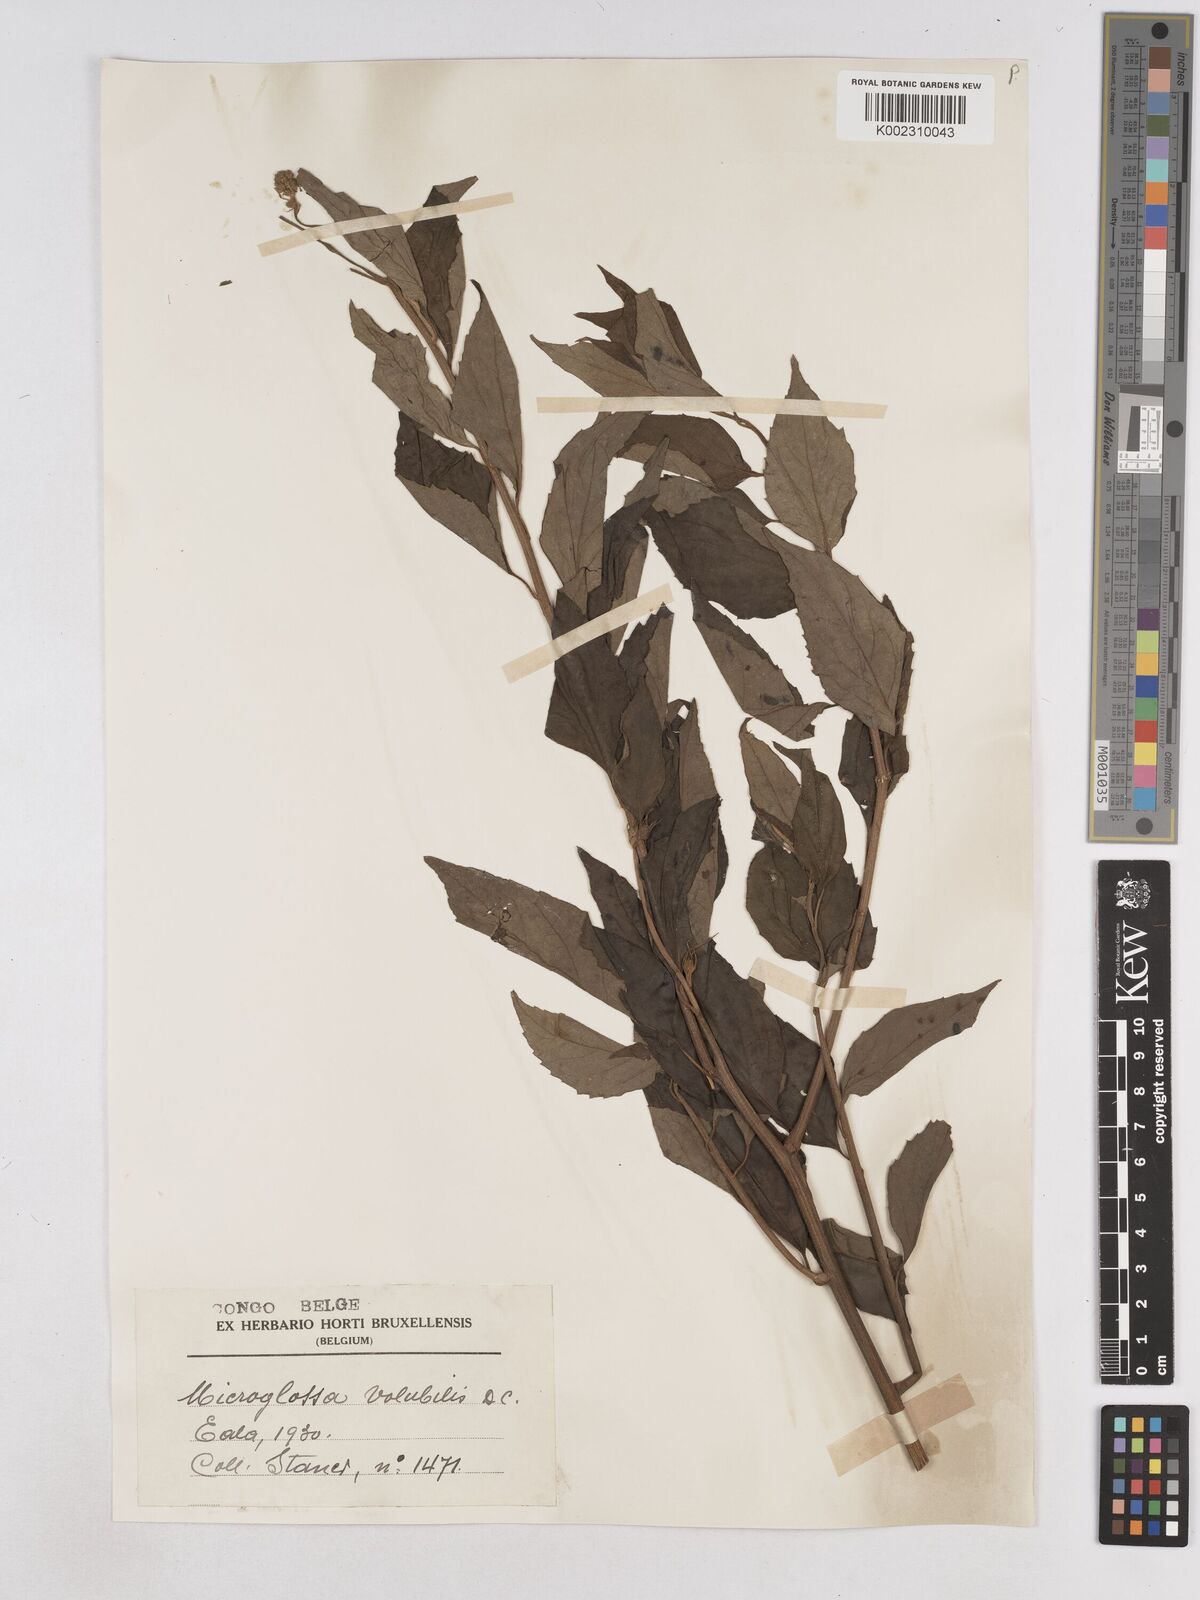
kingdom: Plantae
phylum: Tracheophyta
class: Magnoliopsida
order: Asterales
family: Asteraceae
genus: Microglossa
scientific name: Microglossa pyrifolia
